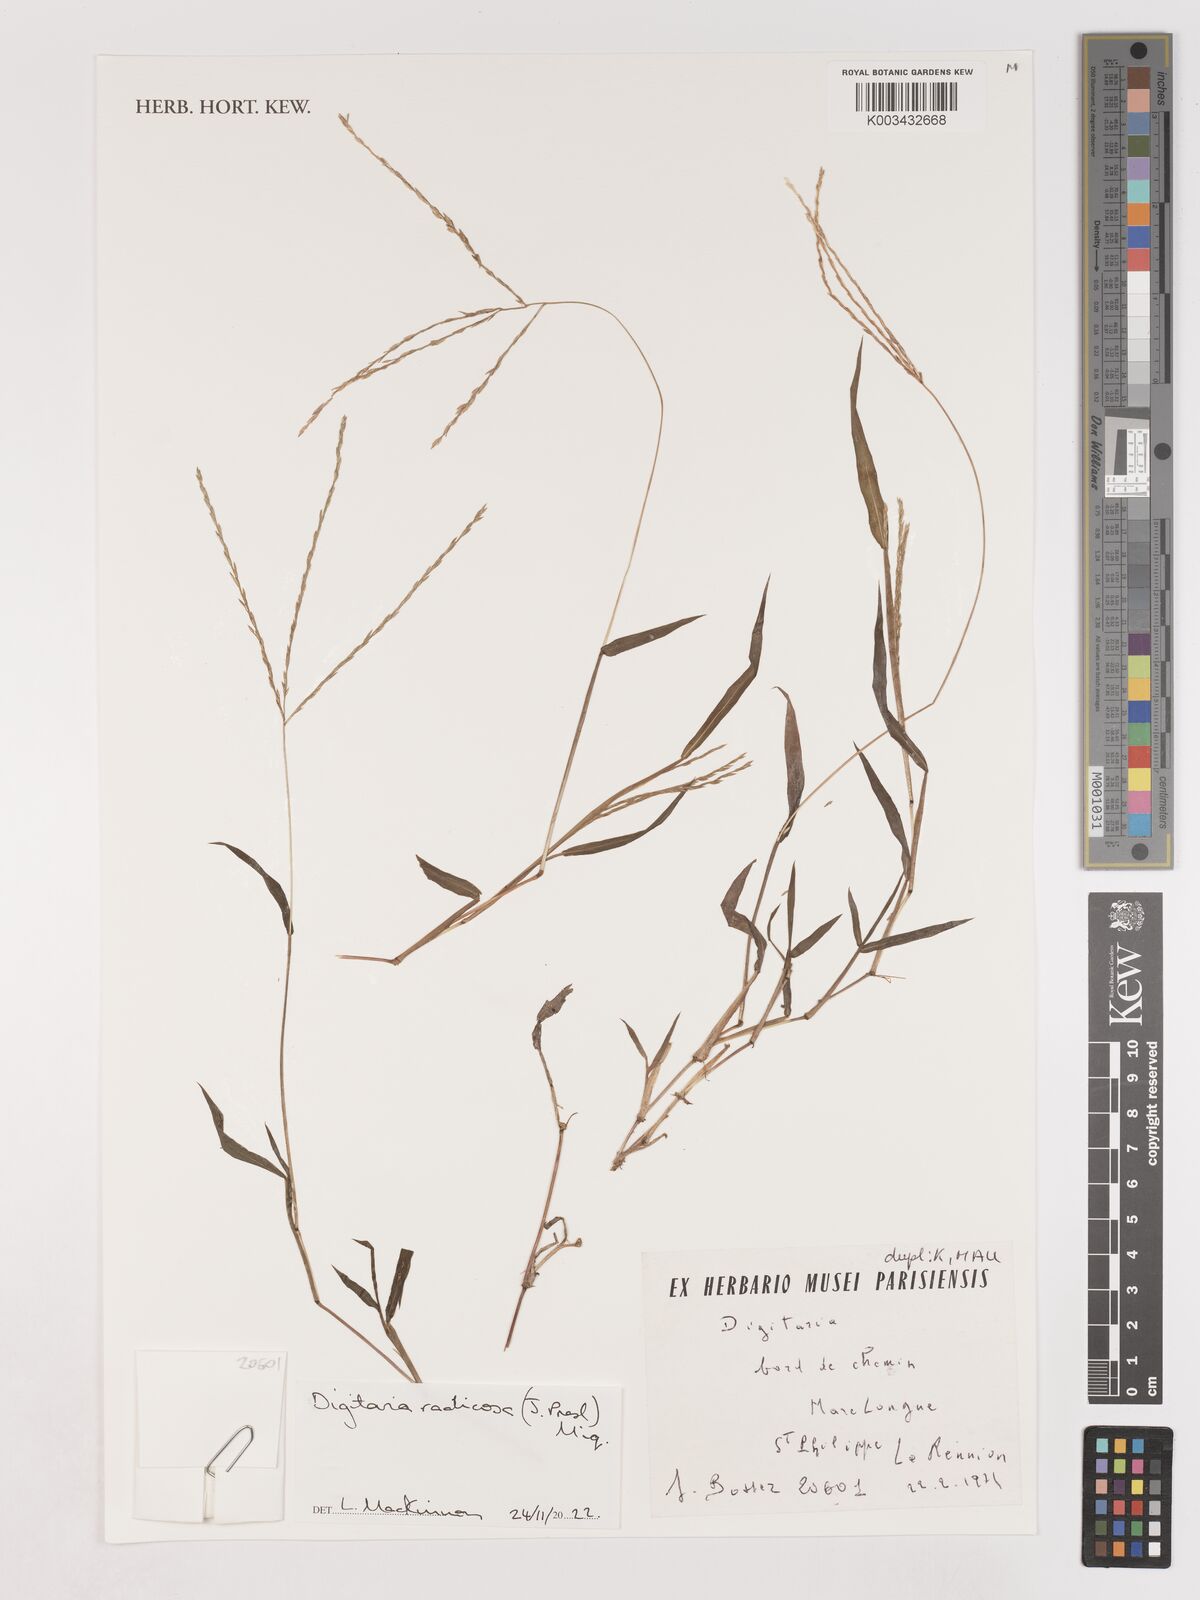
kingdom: Plantae
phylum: Tracheophyta
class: Liliopsida
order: Poales
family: Poaceae
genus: Digitaria
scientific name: Digitaria radicosa
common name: Trailing crabgrass
